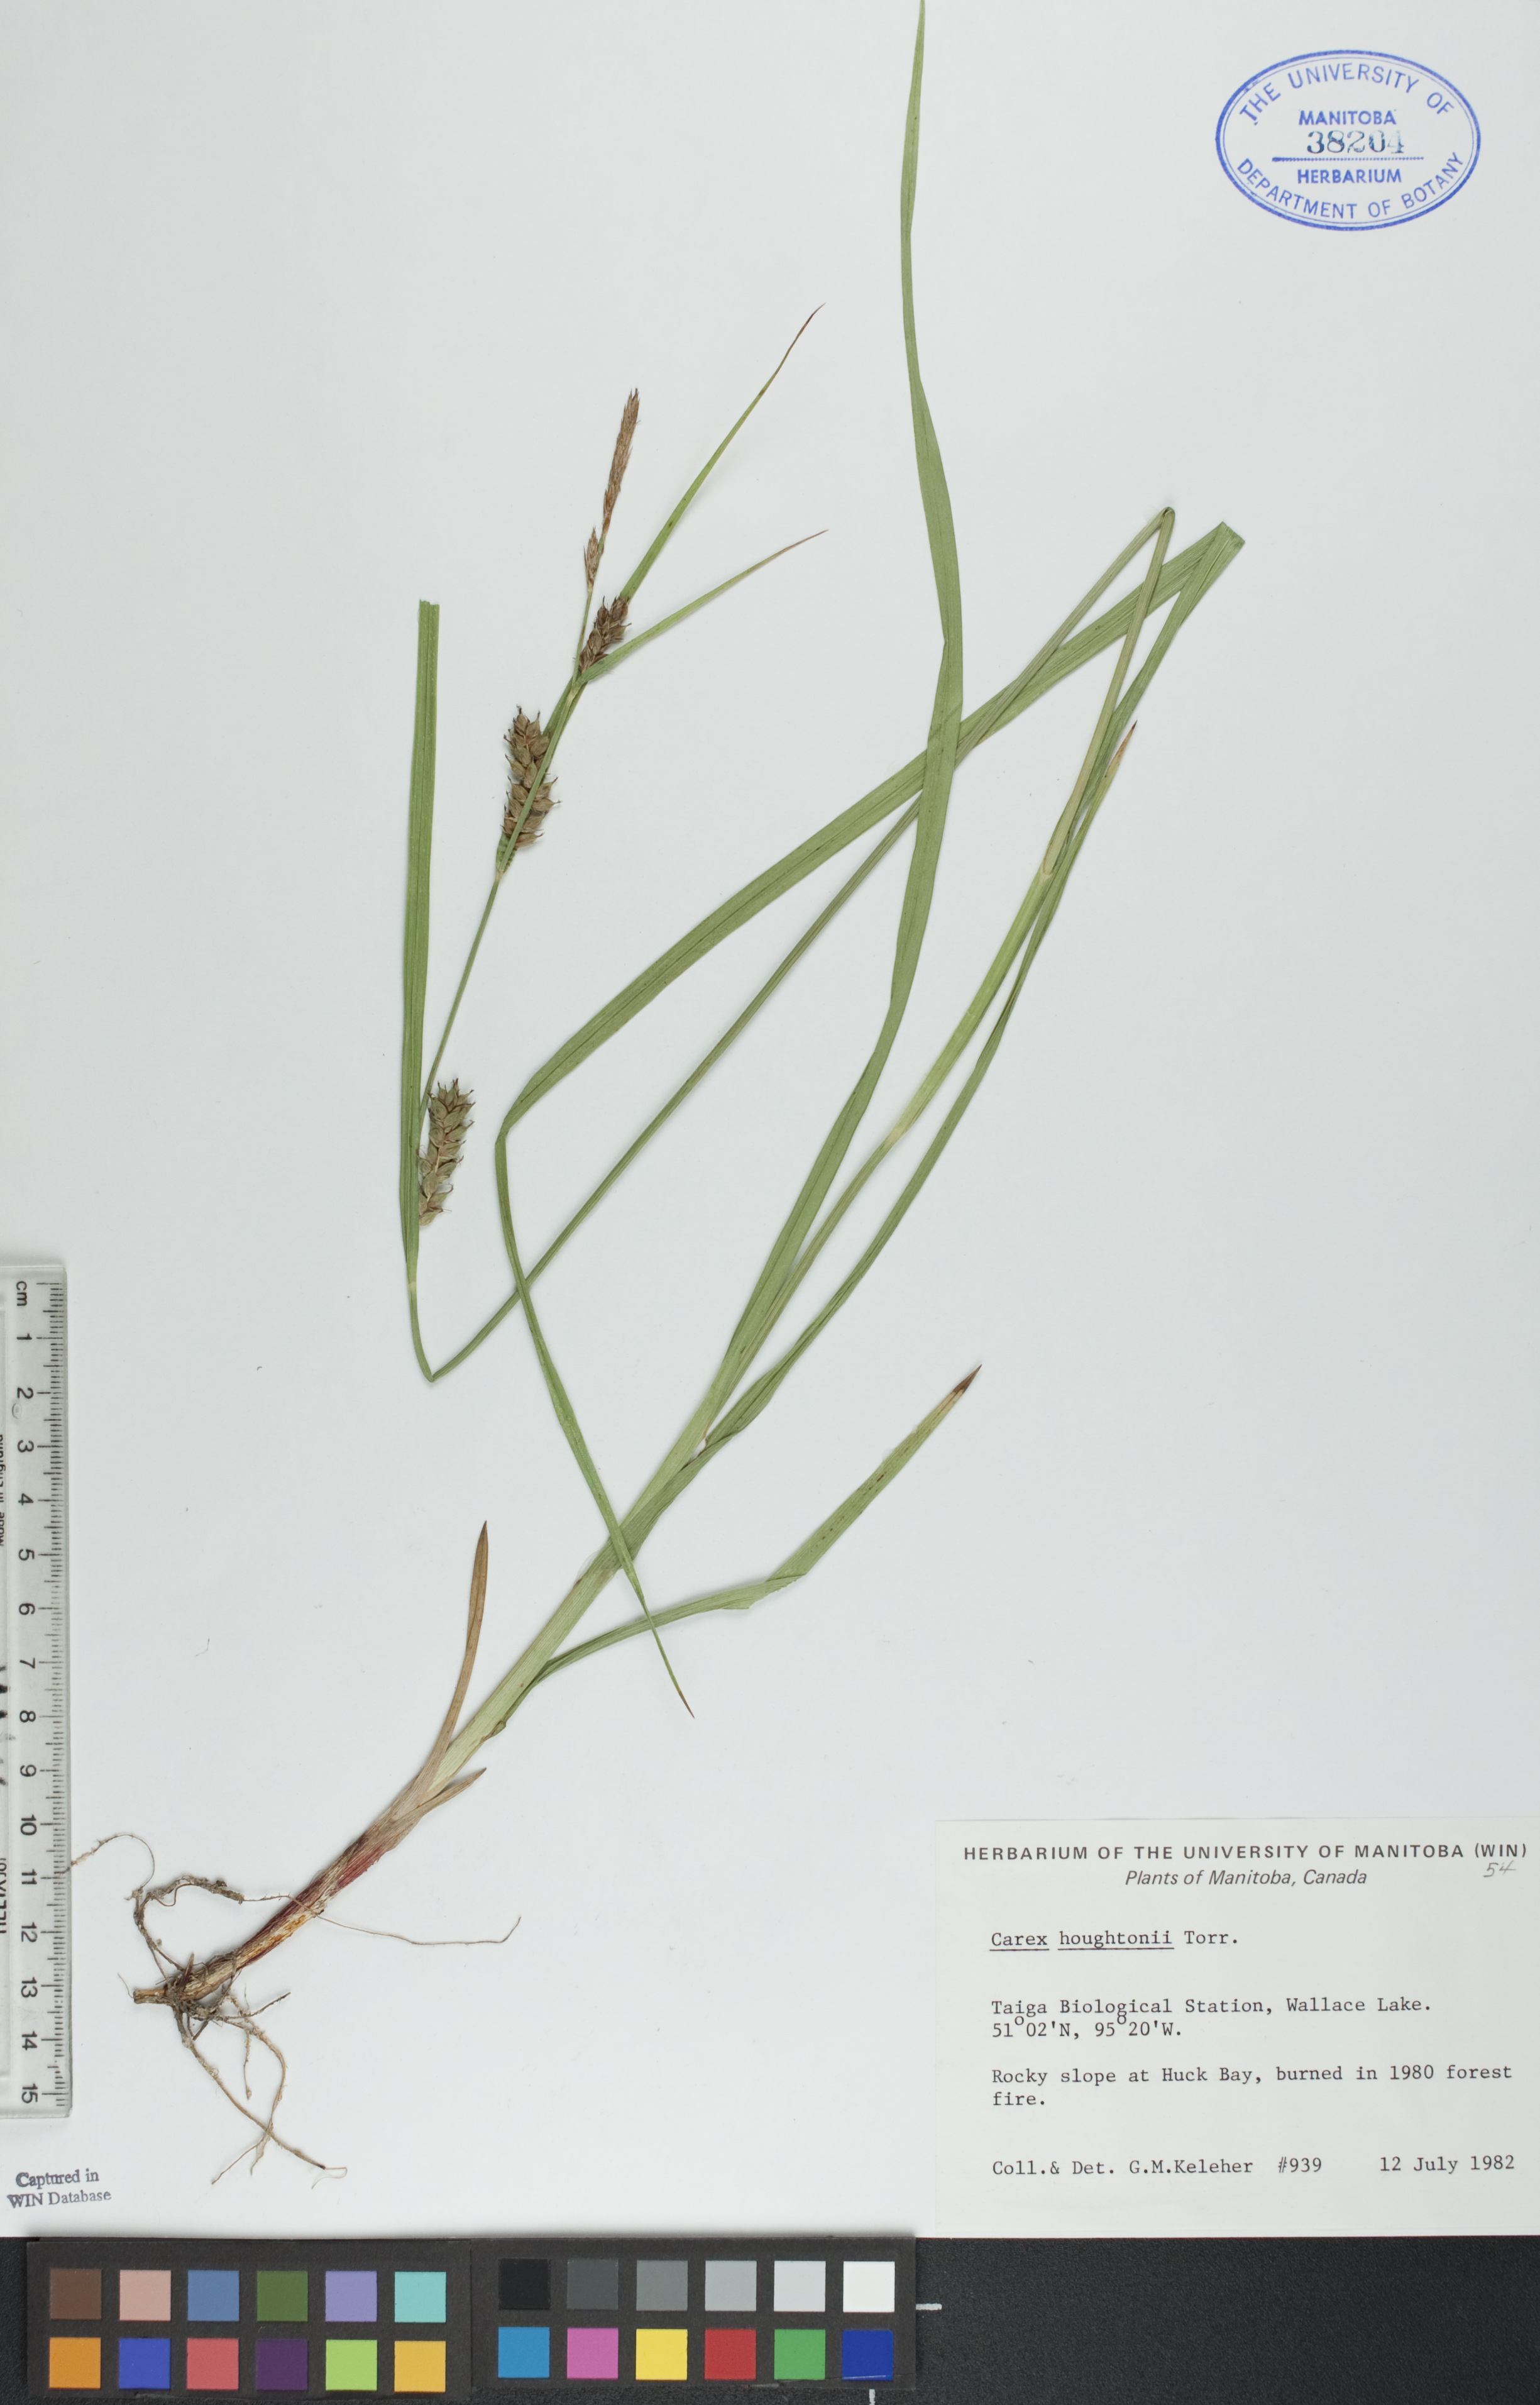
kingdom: Plantae
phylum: Tracheophyta
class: Liliopsida
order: Poales
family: Cyperaceae
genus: Carex
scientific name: Carex houghtoniana
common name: Houghton's sedge
